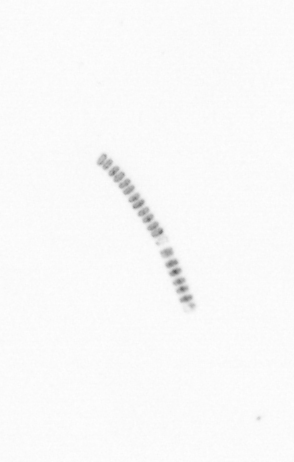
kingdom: Chromista
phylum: Ochrophyta
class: Bacillariophyceae
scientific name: Bacillariophyceae
